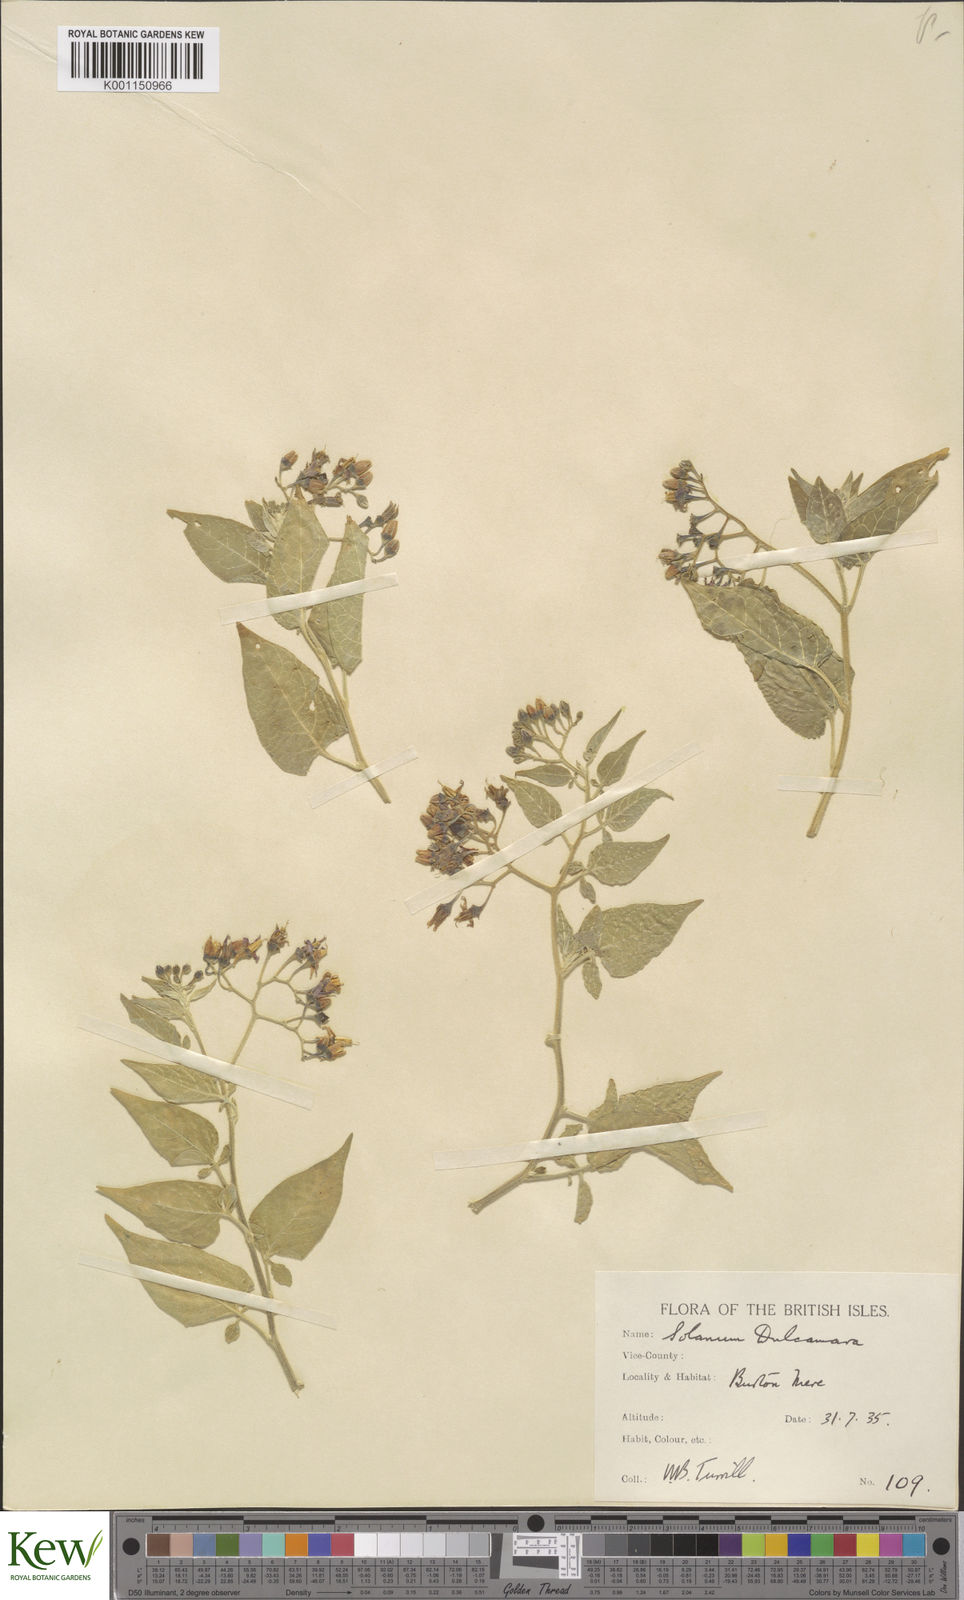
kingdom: Plantae
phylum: Tracheophyta
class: Magnoliopsida
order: Solanales
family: Solanaceae
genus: Solanum
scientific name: Solanum dulcamara
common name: Climbing nightshade
